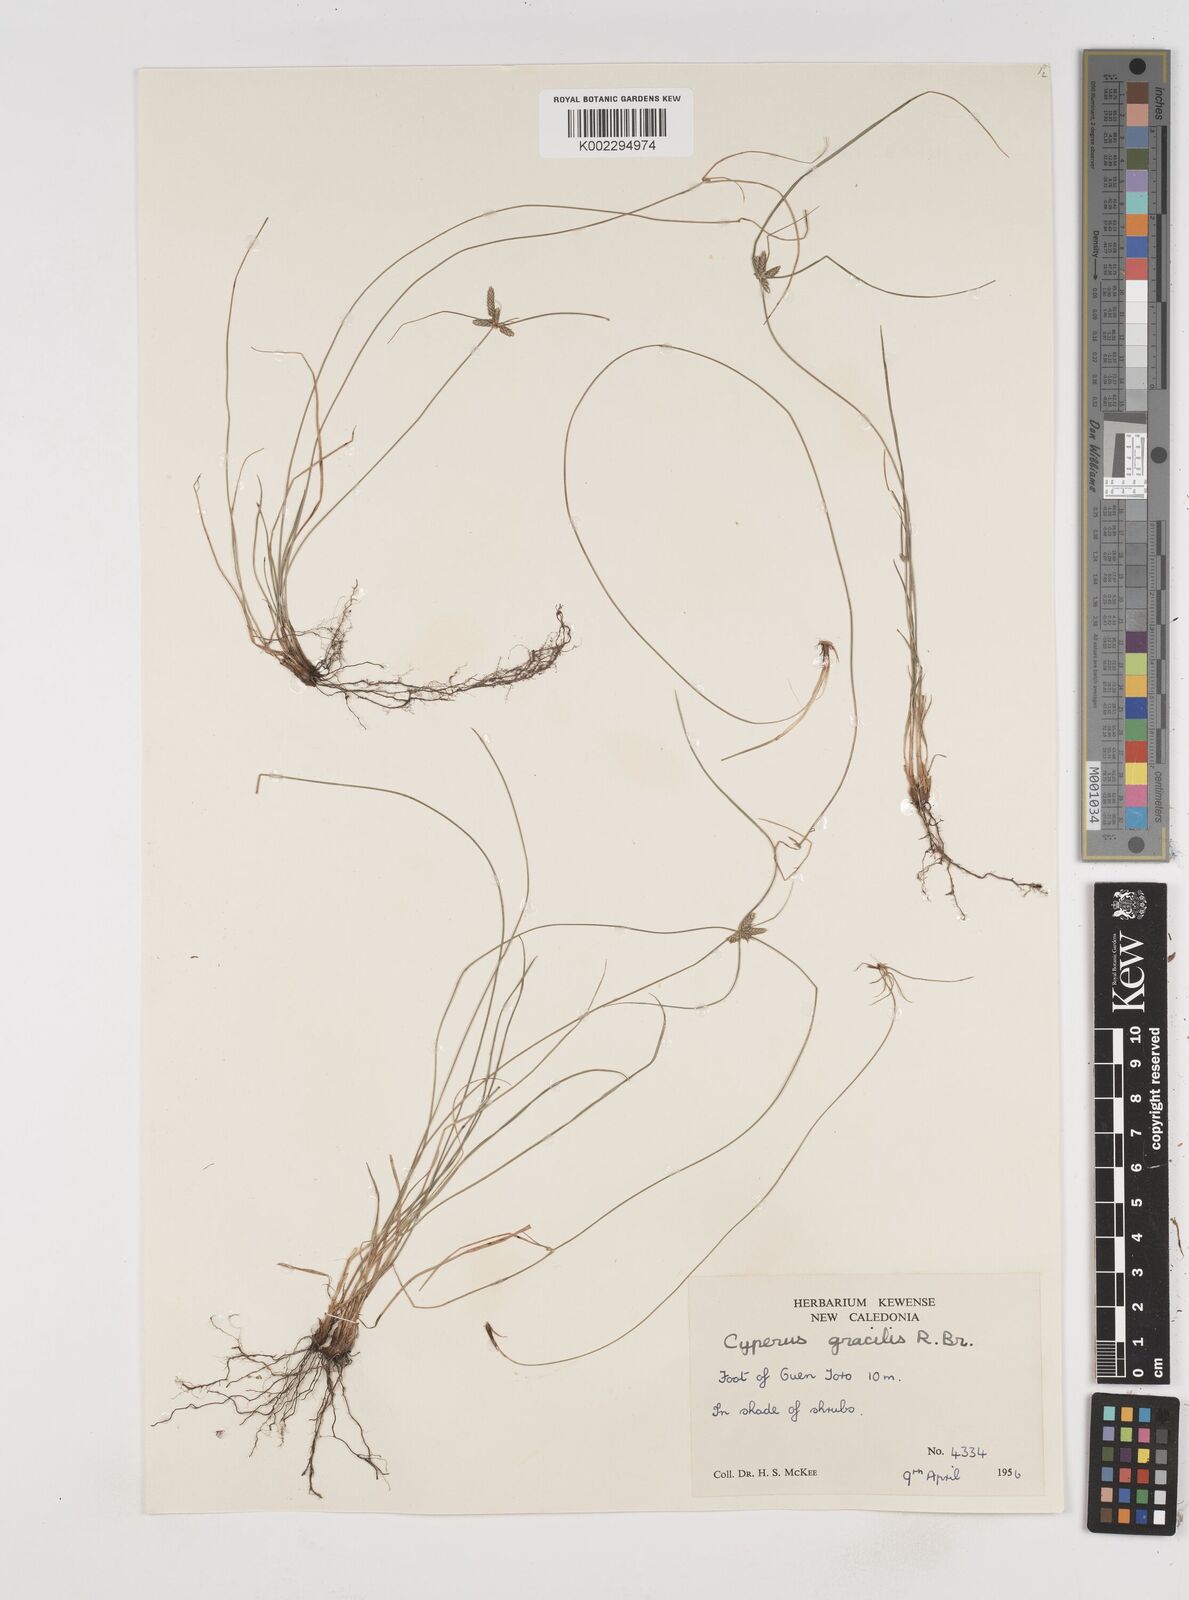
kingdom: Plantae
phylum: Tracheophyta
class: Liliopsida
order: Poales
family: Cyperaceae
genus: Cyperus
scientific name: Cyperus gracilis
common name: Slimjim flatsedge
